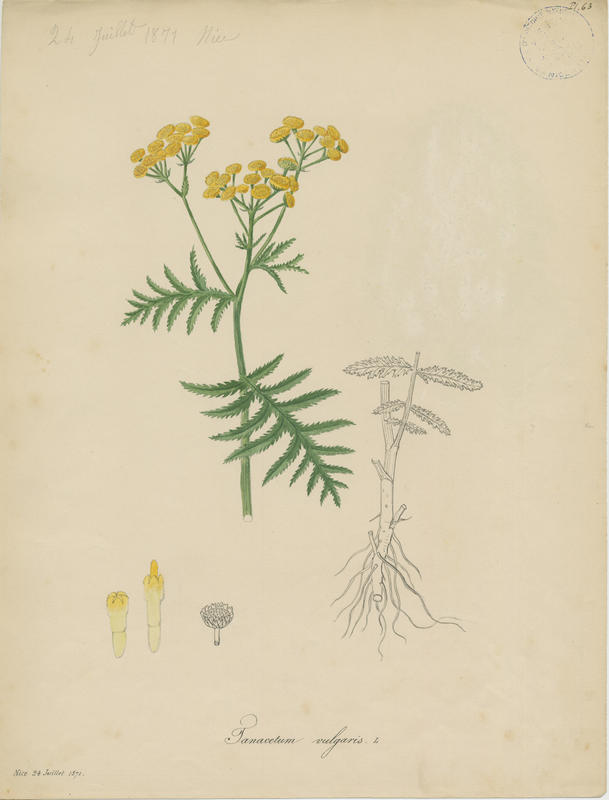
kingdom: Plantae
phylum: Tracheophyta
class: Magnoliopsida
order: Asterales
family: Asteraceae
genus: Tanacetum
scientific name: Tanacetum vulgare
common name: Common tansy
